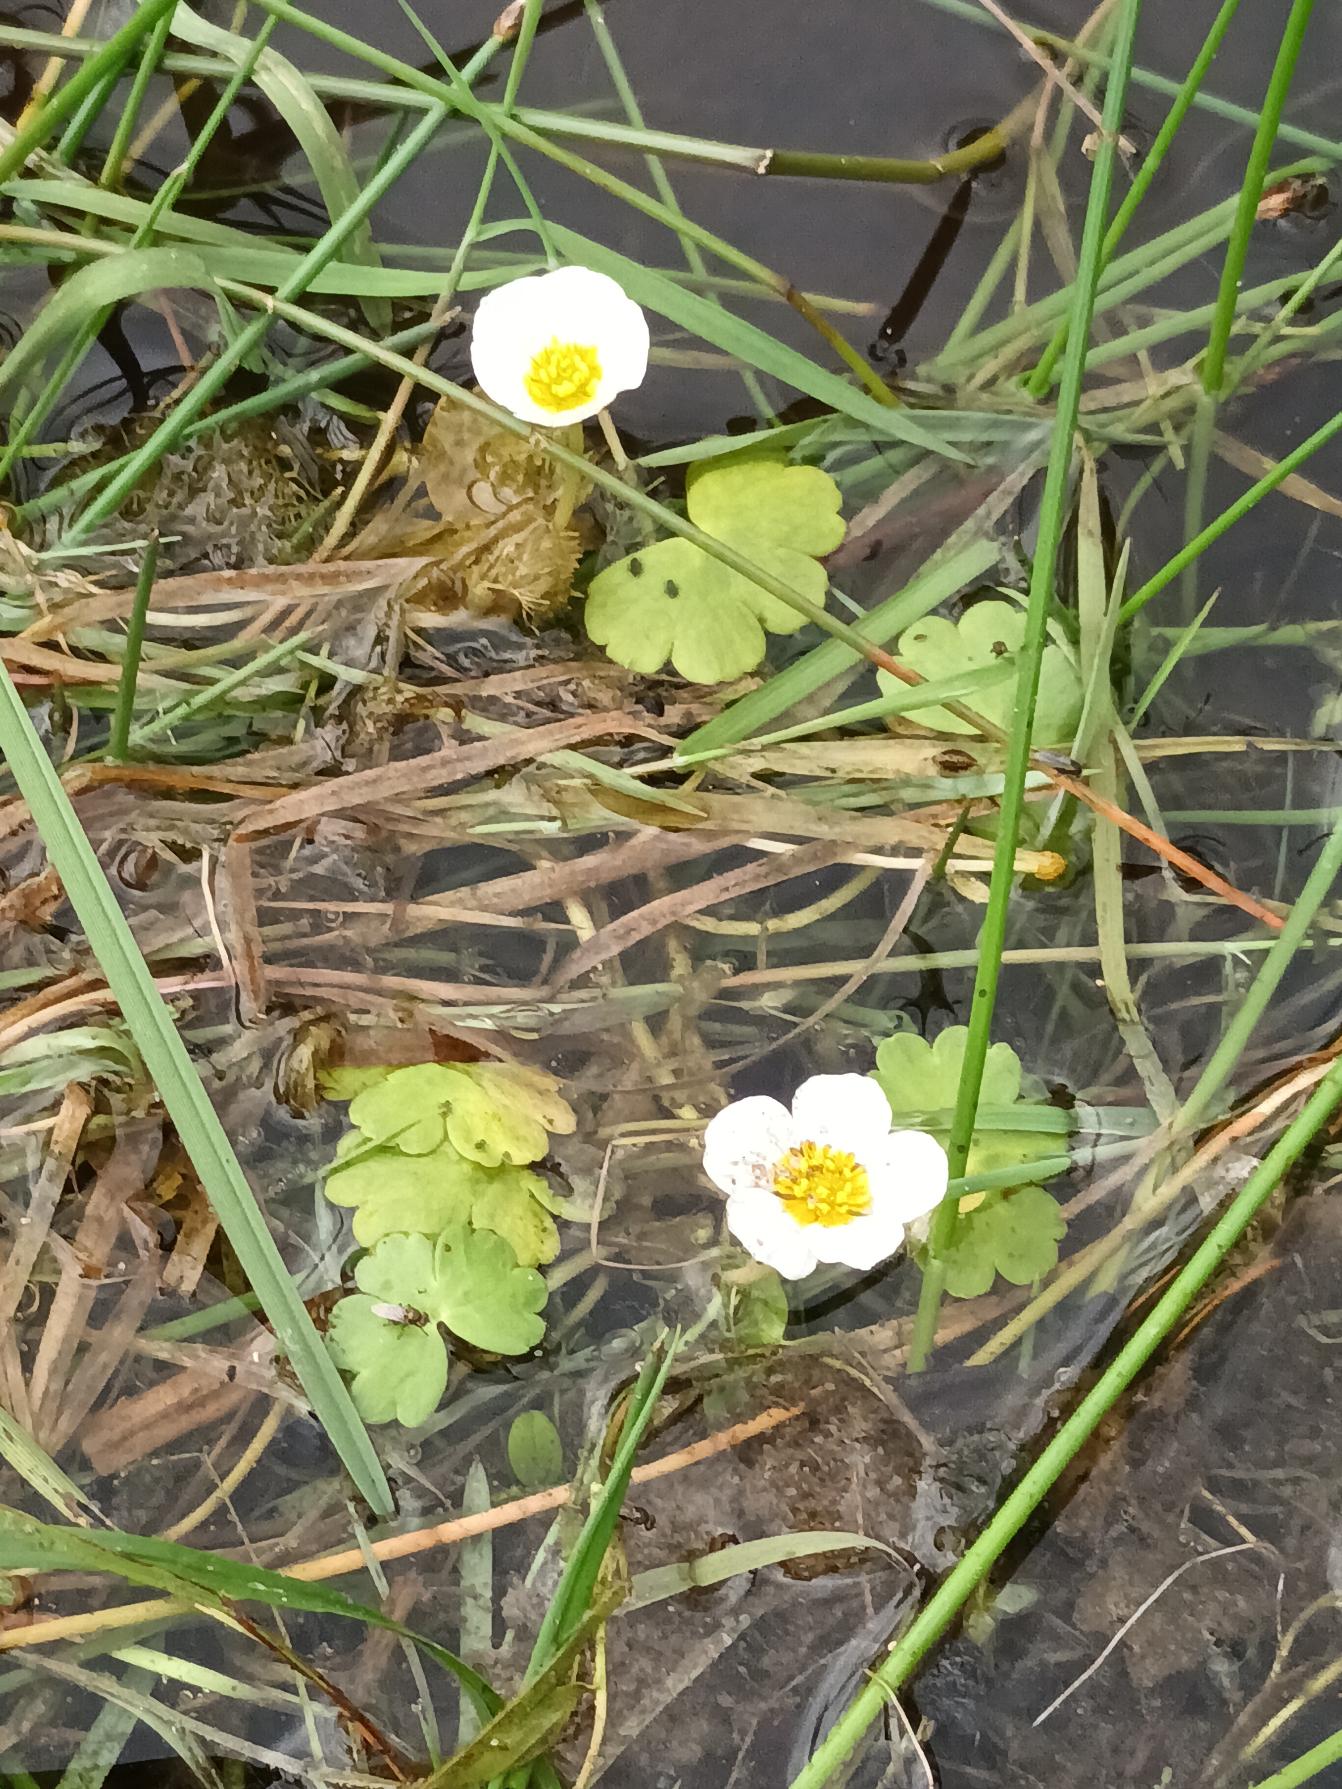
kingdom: Plantae
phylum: Tracheophyta
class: Magnoliopsida
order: Ranunculales
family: Ranunculaceae
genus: Ranunculus
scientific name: Ranunculus peltatus
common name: Storblomstret vandranunkel (underart)
